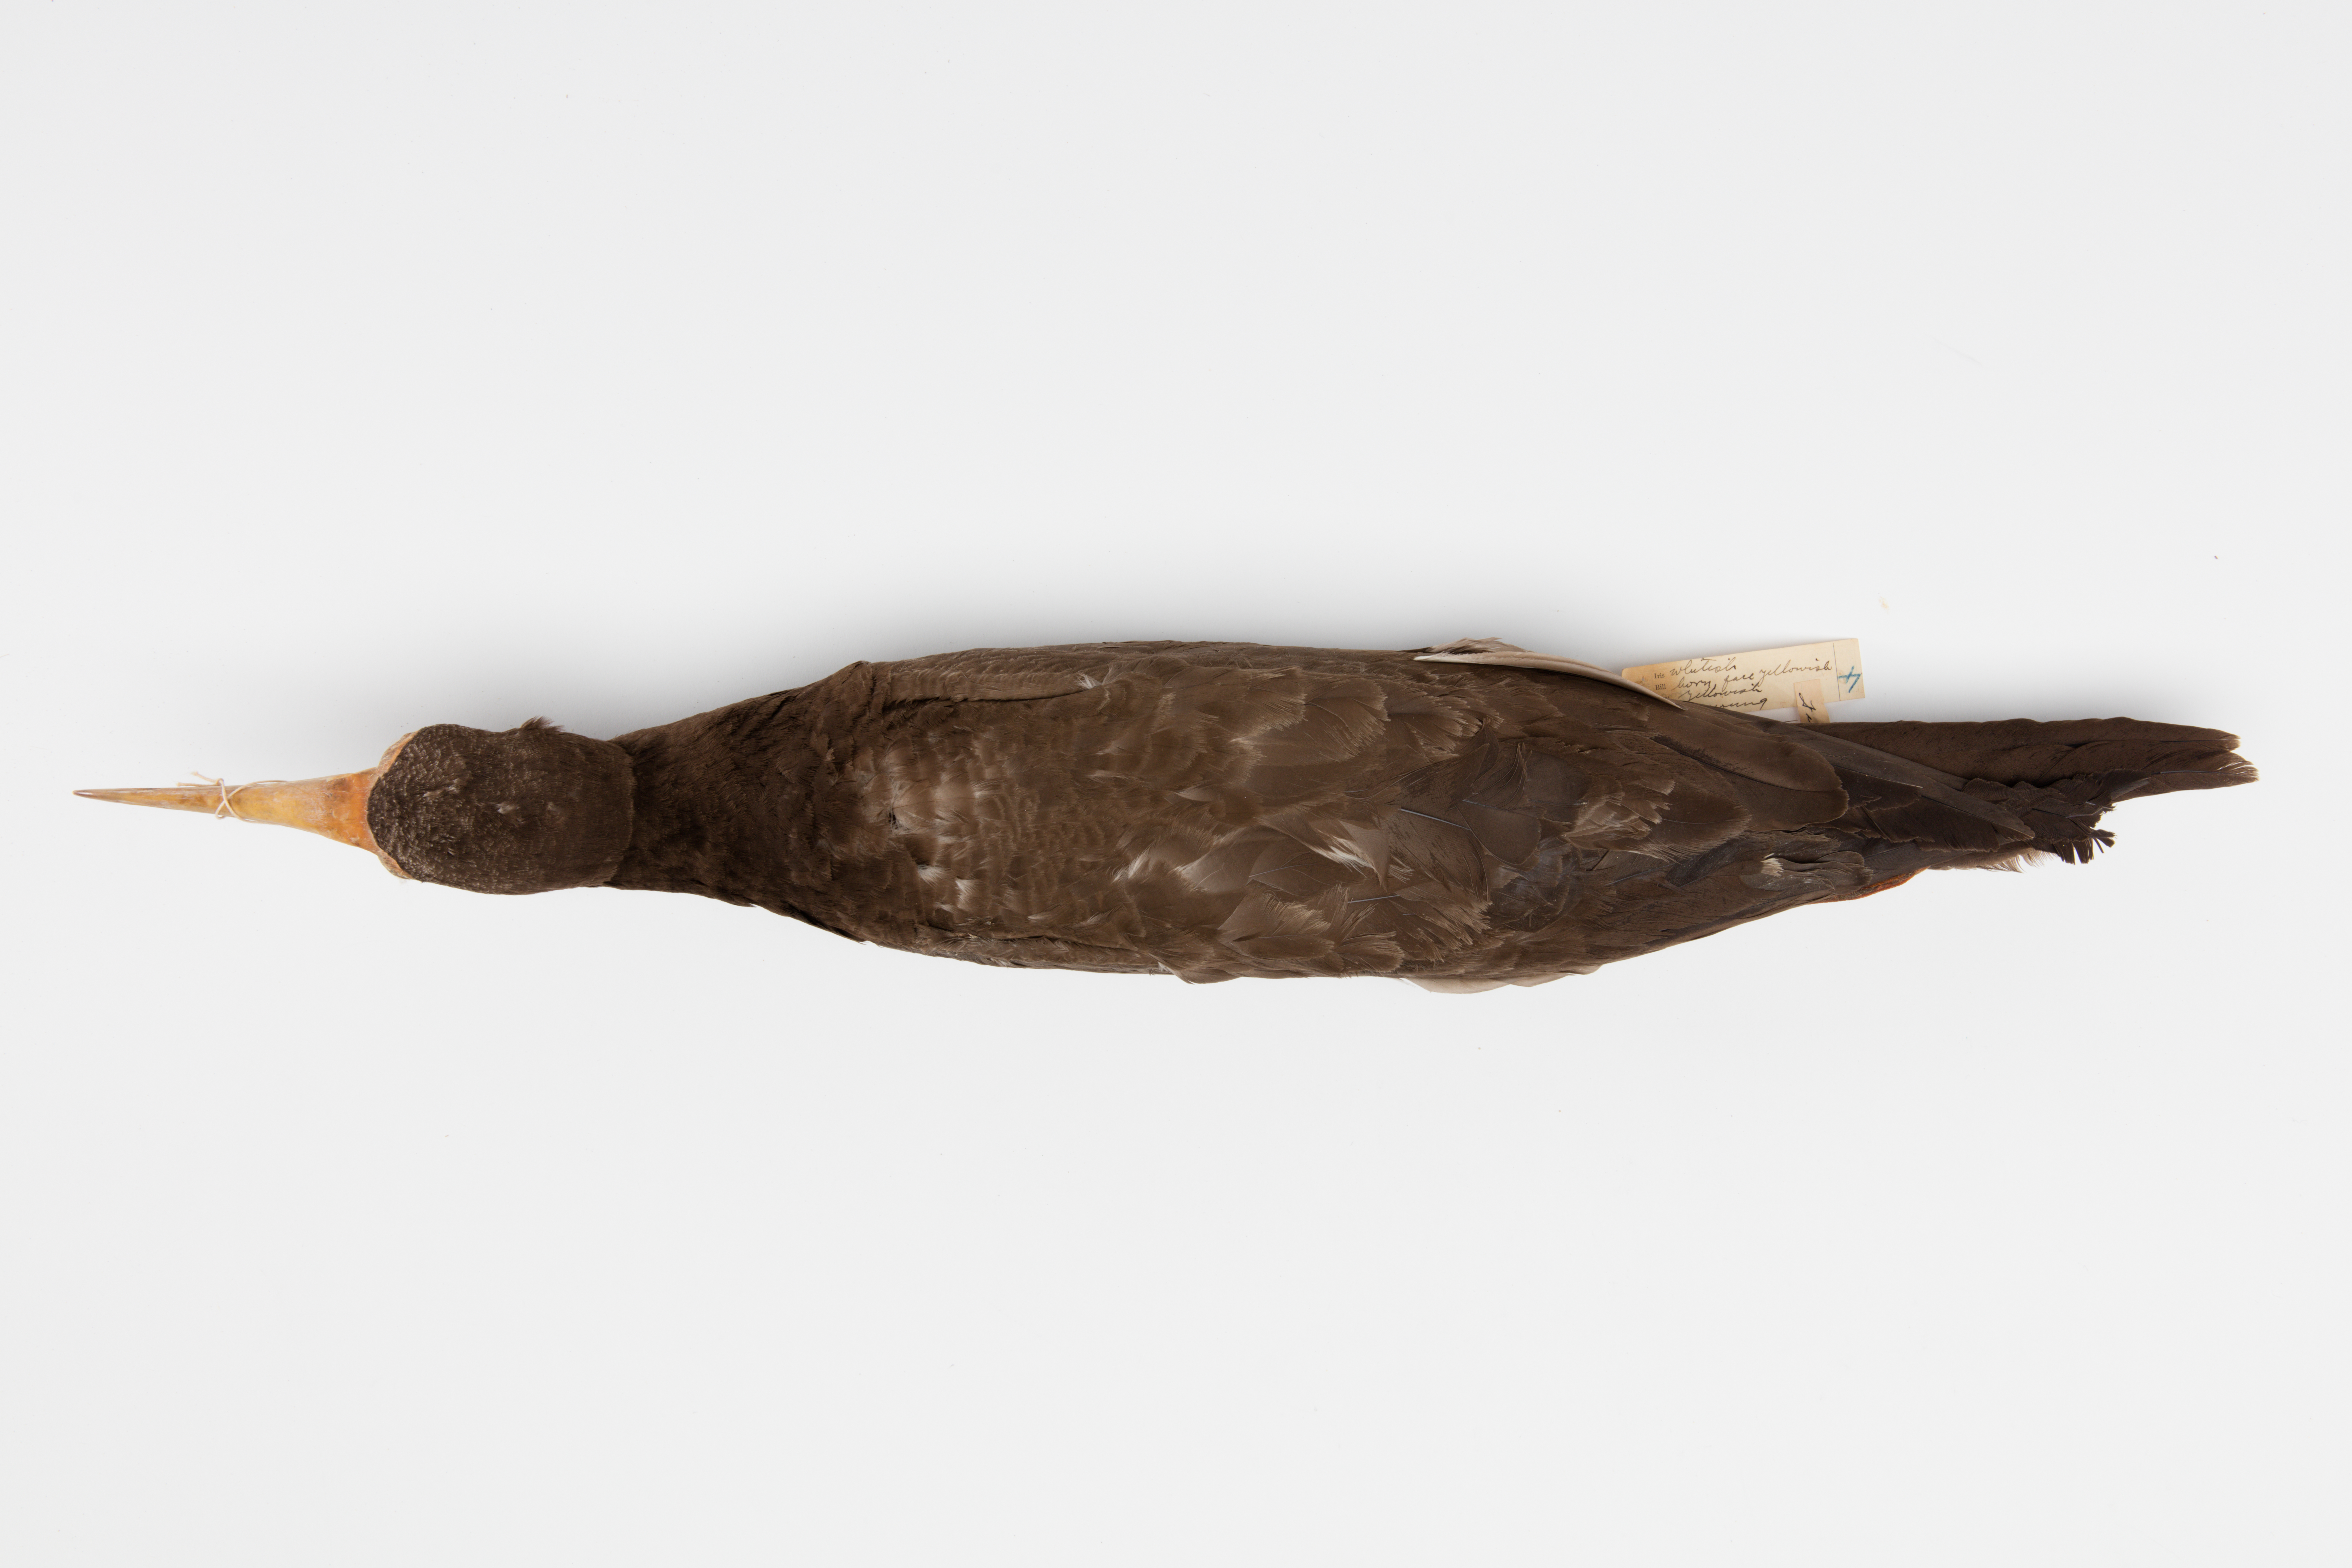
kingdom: Animalia
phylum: Chordata
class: Aves
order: Suliformes
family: Sulidae
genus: Sula
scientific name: Sula leucogaster
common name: Brown booby
